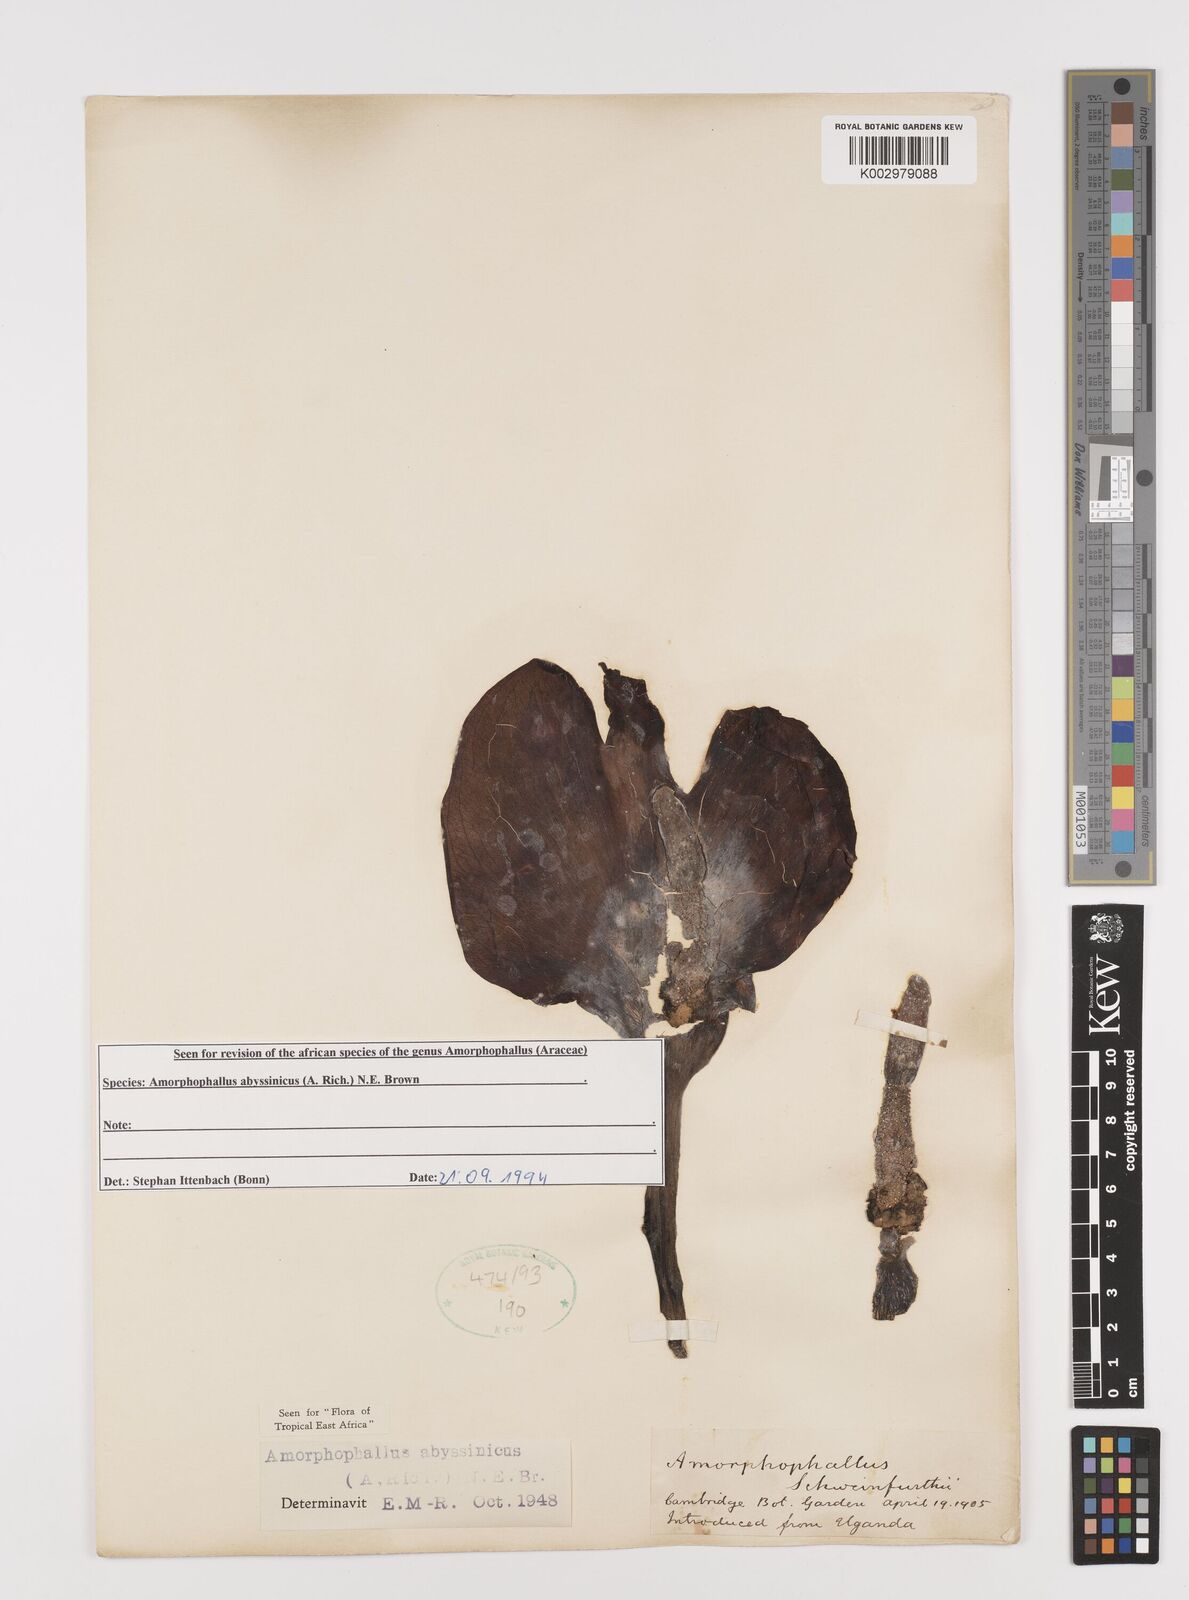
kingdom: Plantae
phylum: Tracheophyta
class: Liliopsida
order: Alismatales
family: Araceae
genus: Amorphophallus
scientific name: Amorphophallus abyssinicus
